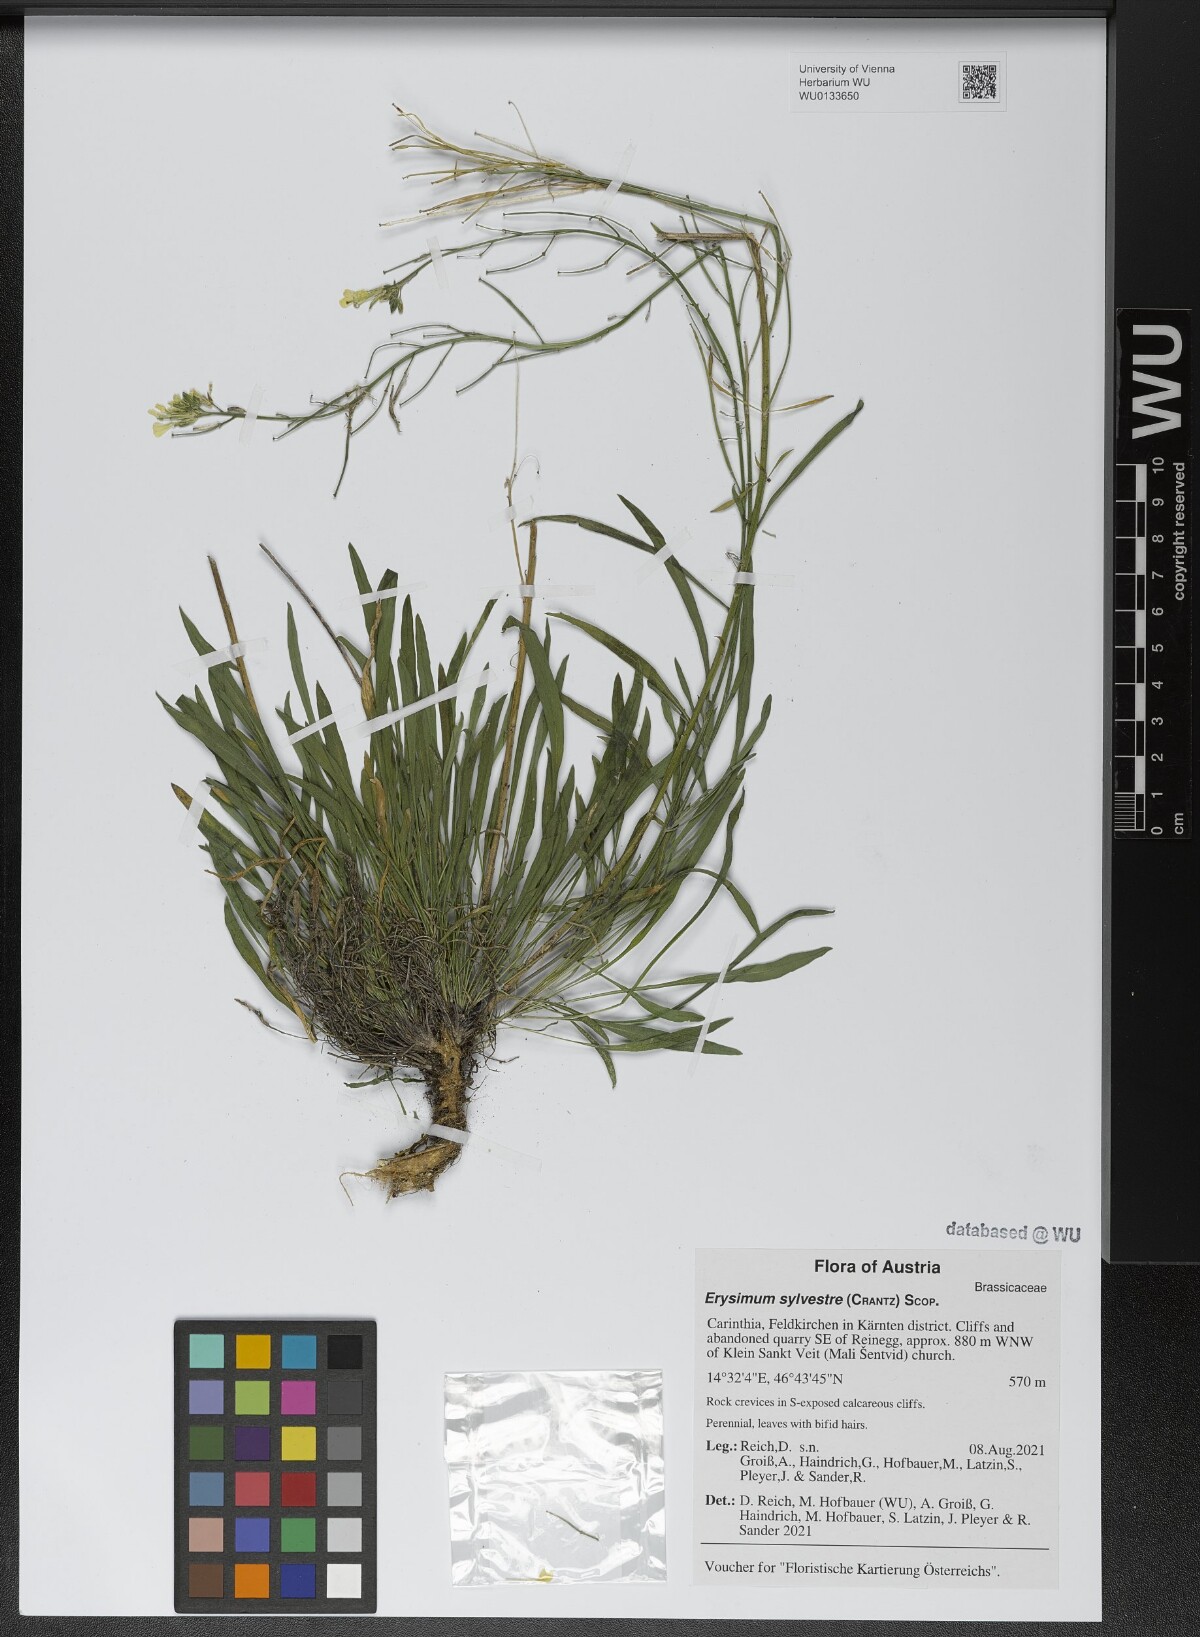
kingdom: Plantae
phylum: Tracheophyta
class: Magnoliopsida
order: Brassicales
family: Brassicaceae
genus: Erysimum
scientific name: Erysimum sylvestre
